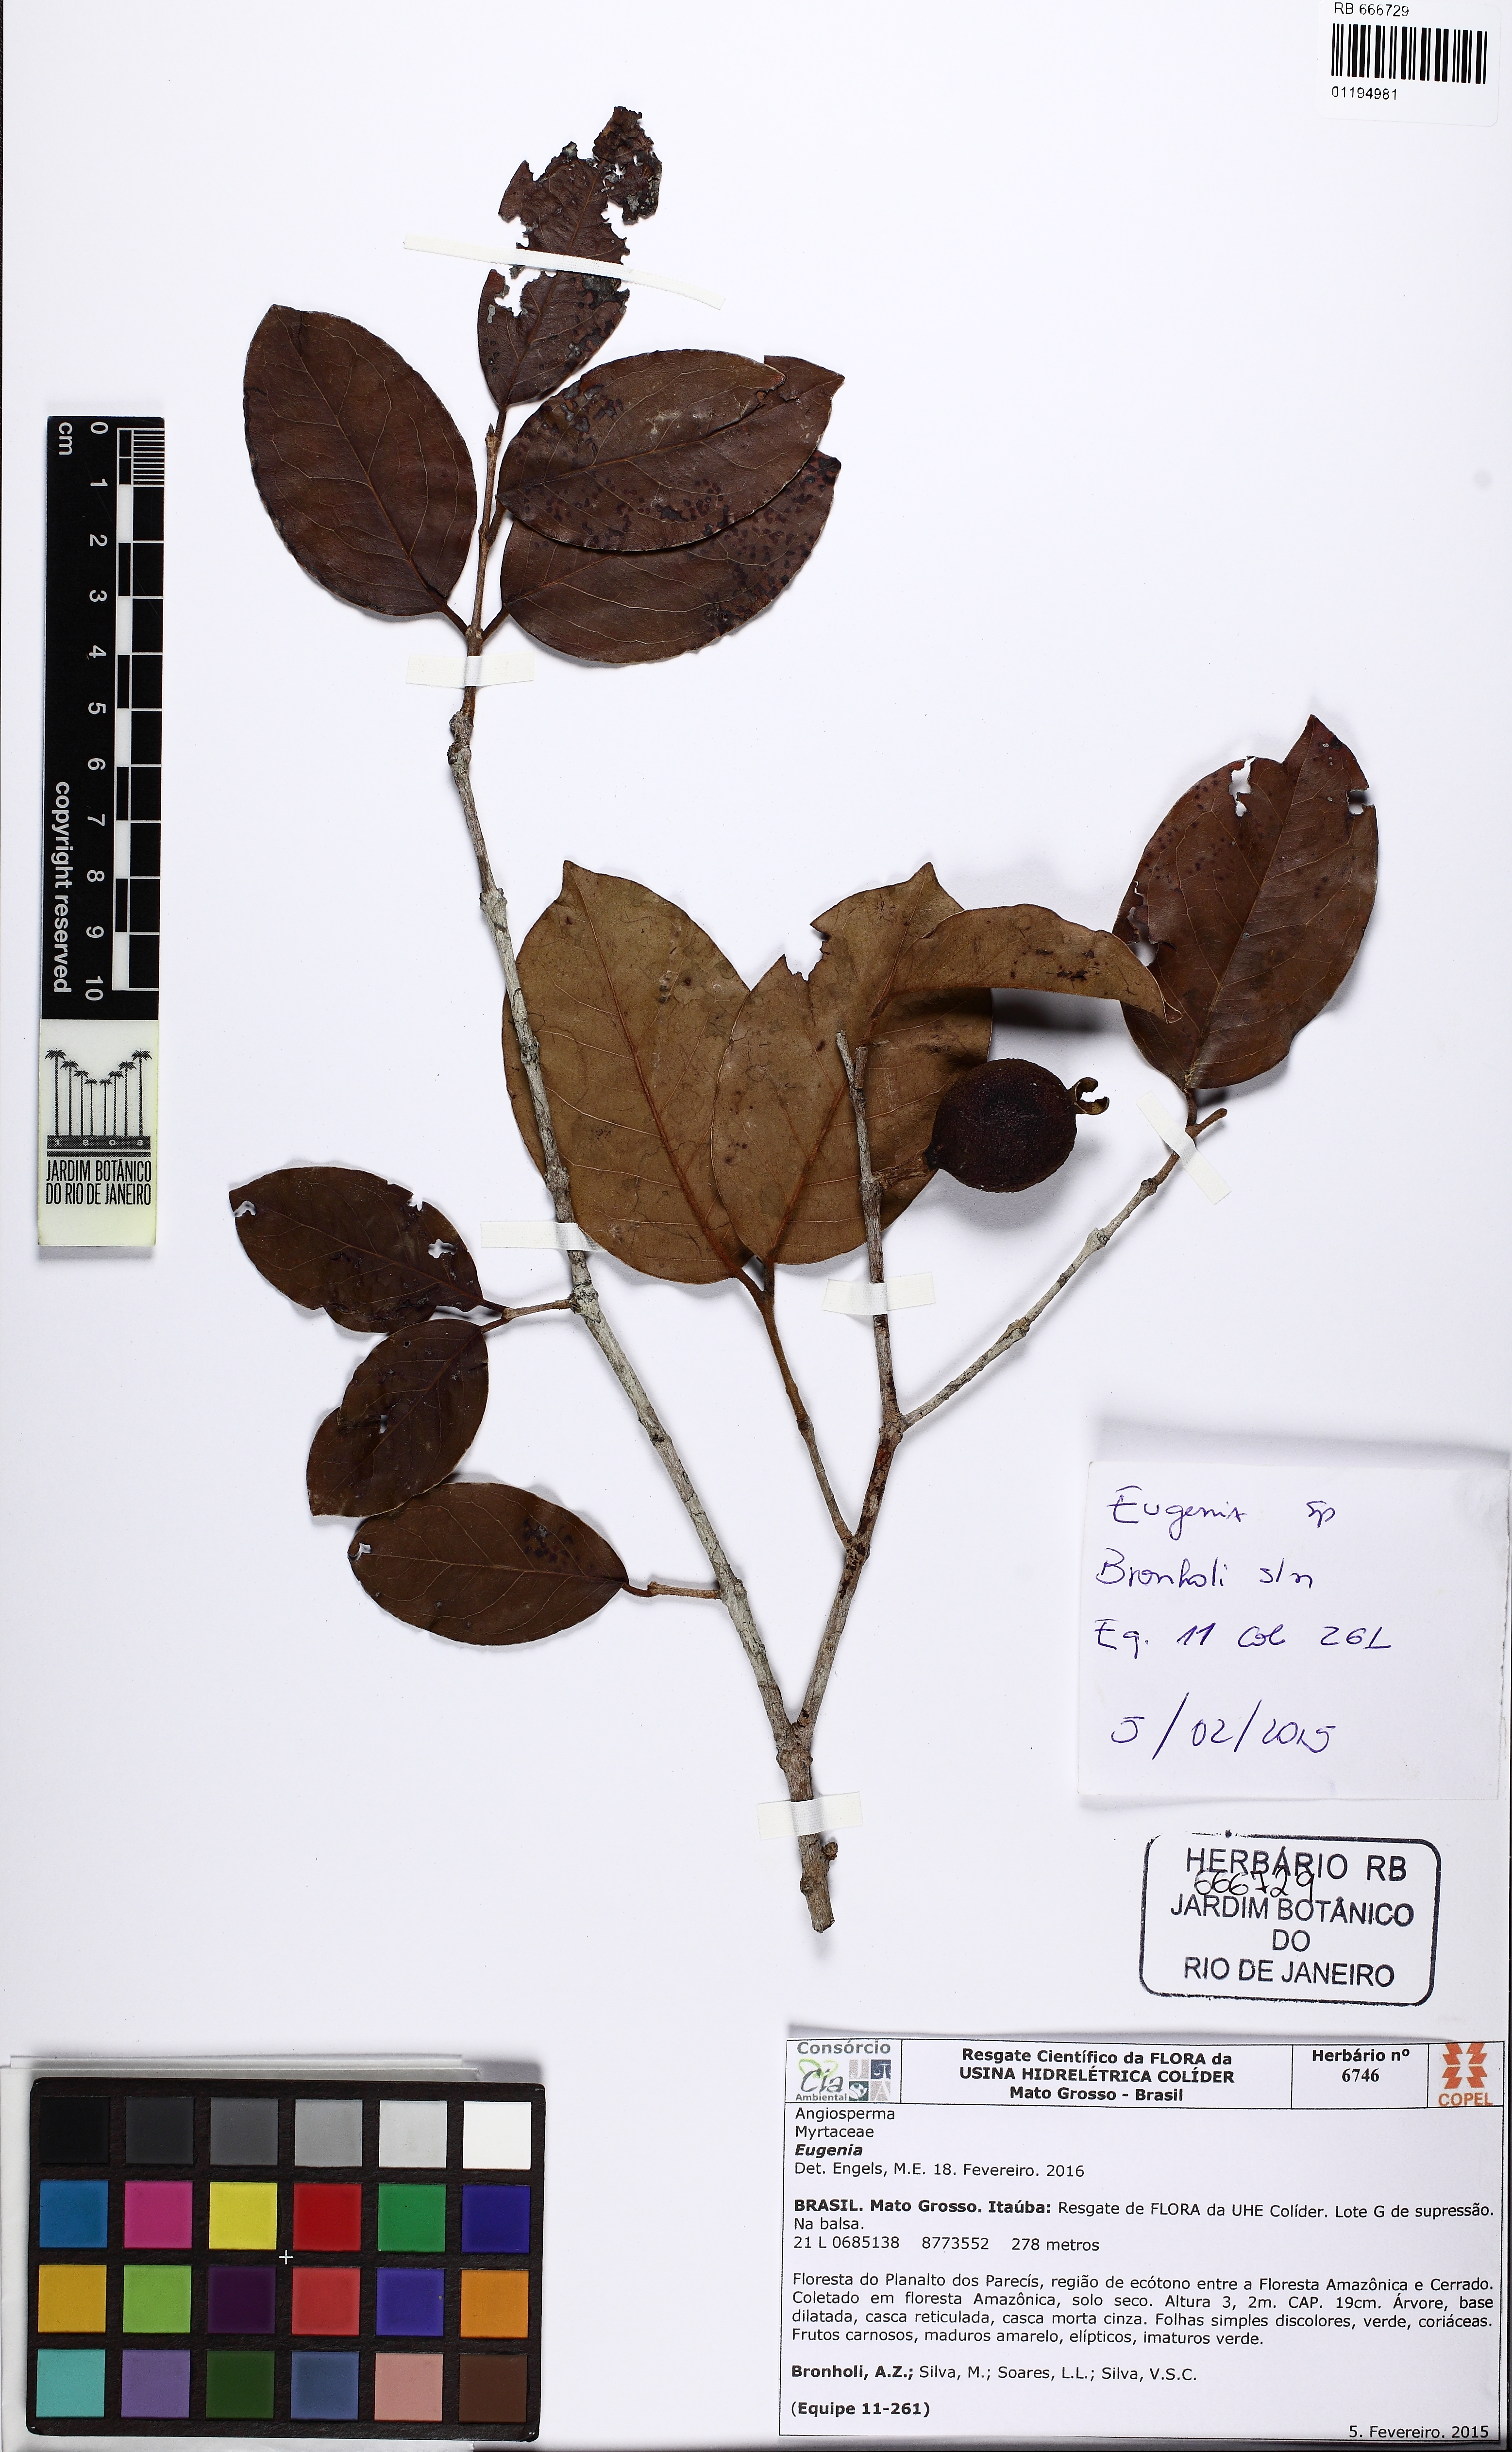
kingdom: Plantae
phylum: Tracheophyta
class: Magnoliopsida
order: Myrtales
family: Myrtaceae
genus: Eugenia
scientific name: Eugenia moschata
